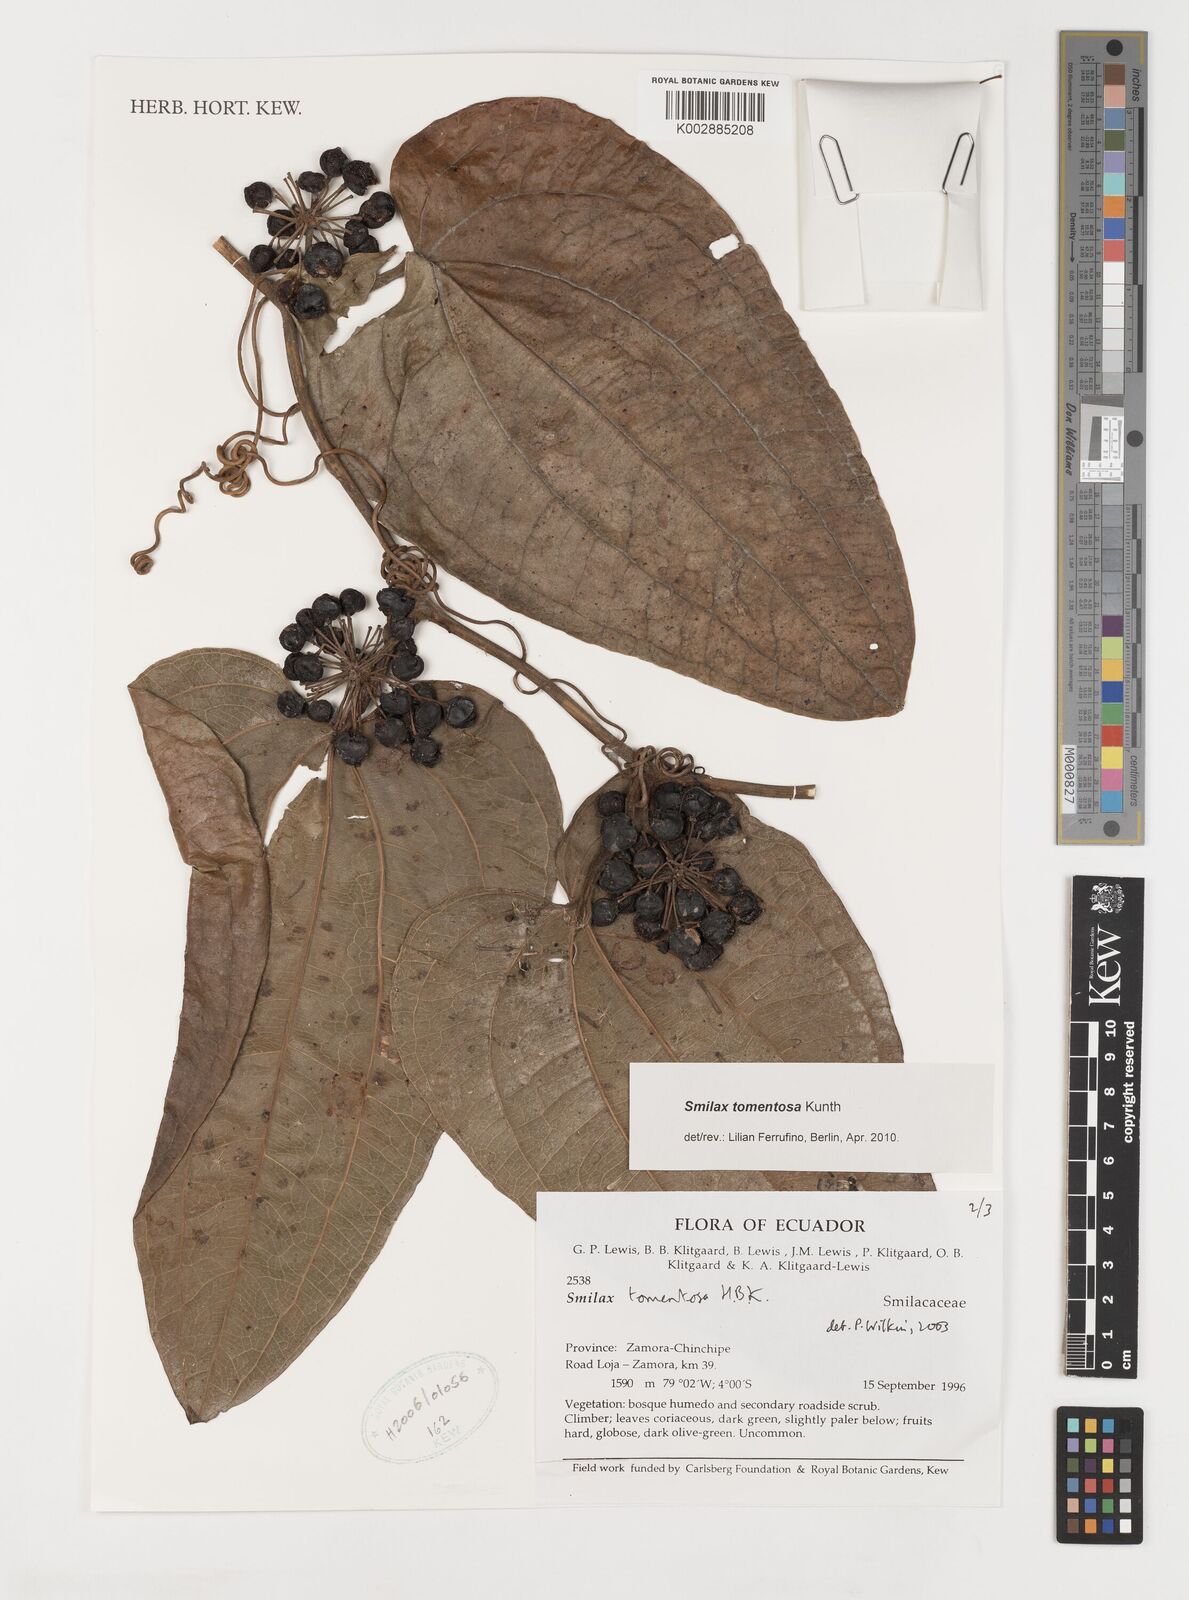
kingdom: Plantae
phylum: Tracheophyta
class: Liliopsida
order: Liliales
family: Smilacaceae
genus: Smilax
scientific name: Smilax tomentosa
